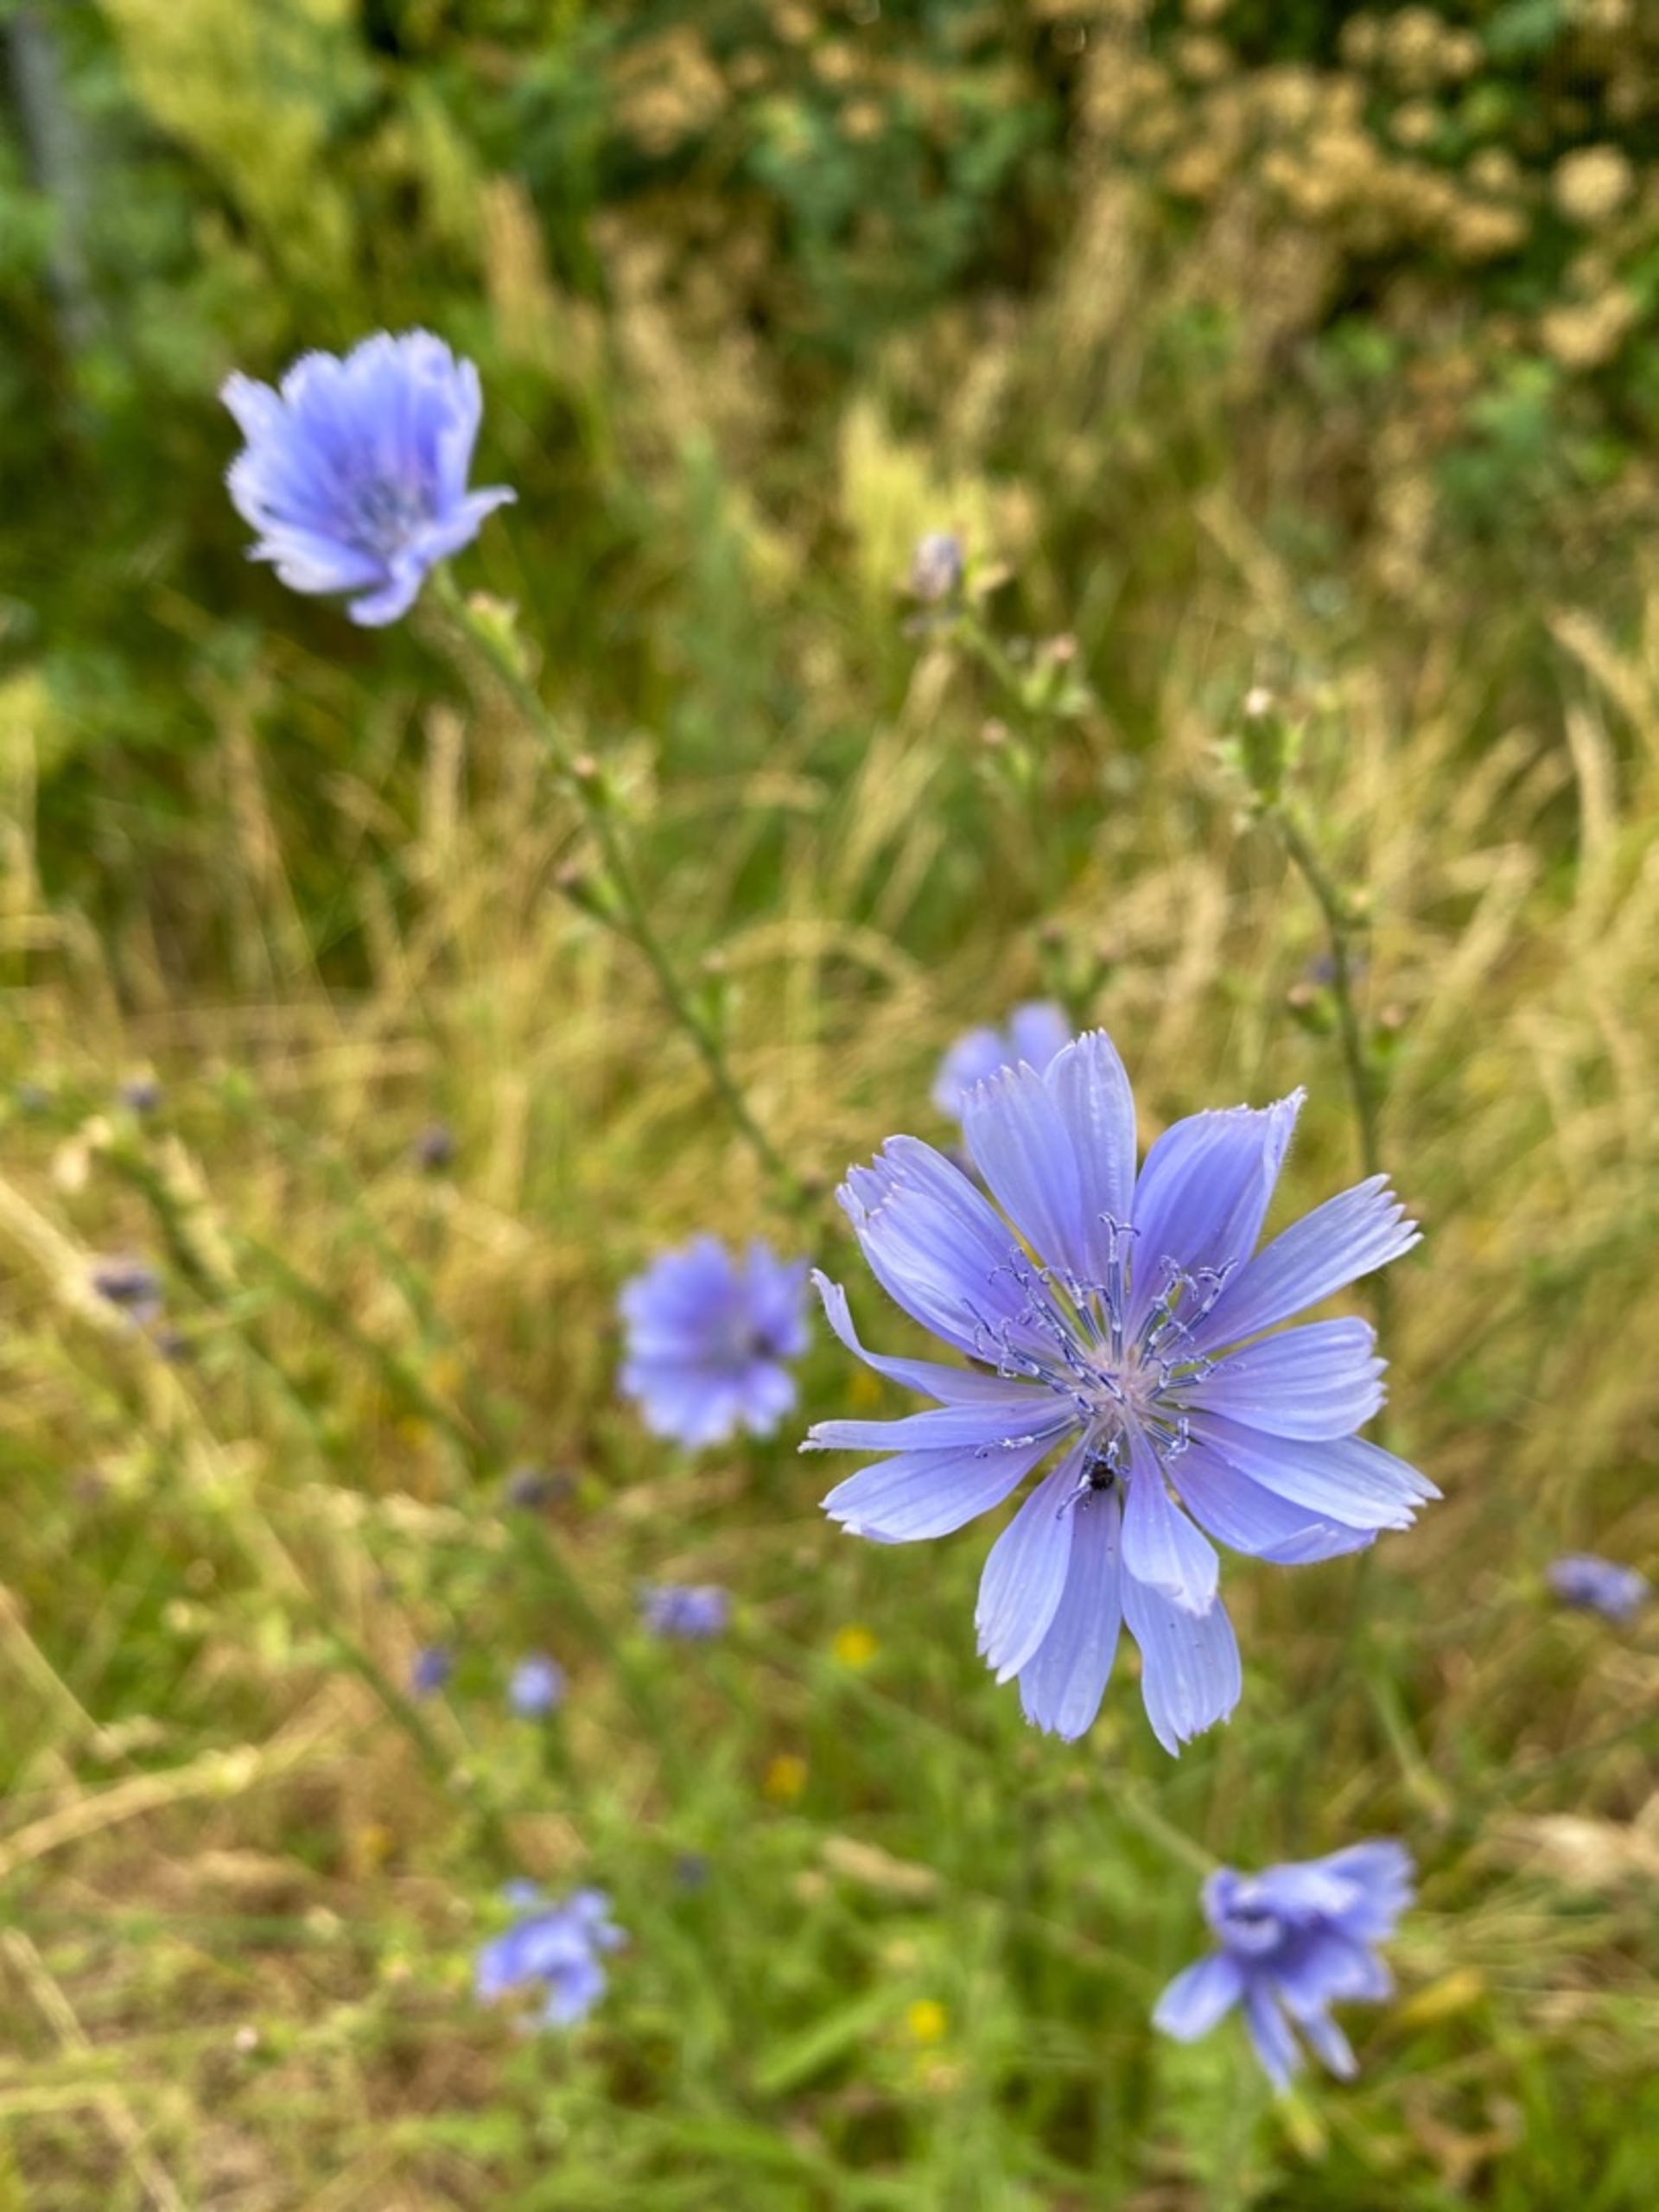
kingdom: Plantae
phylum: Tracheophyta
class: Magnoliopsida
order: Asterales
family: Asteraceae
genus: Cichorium
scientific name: Cichorium intybus
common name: Cikorie
